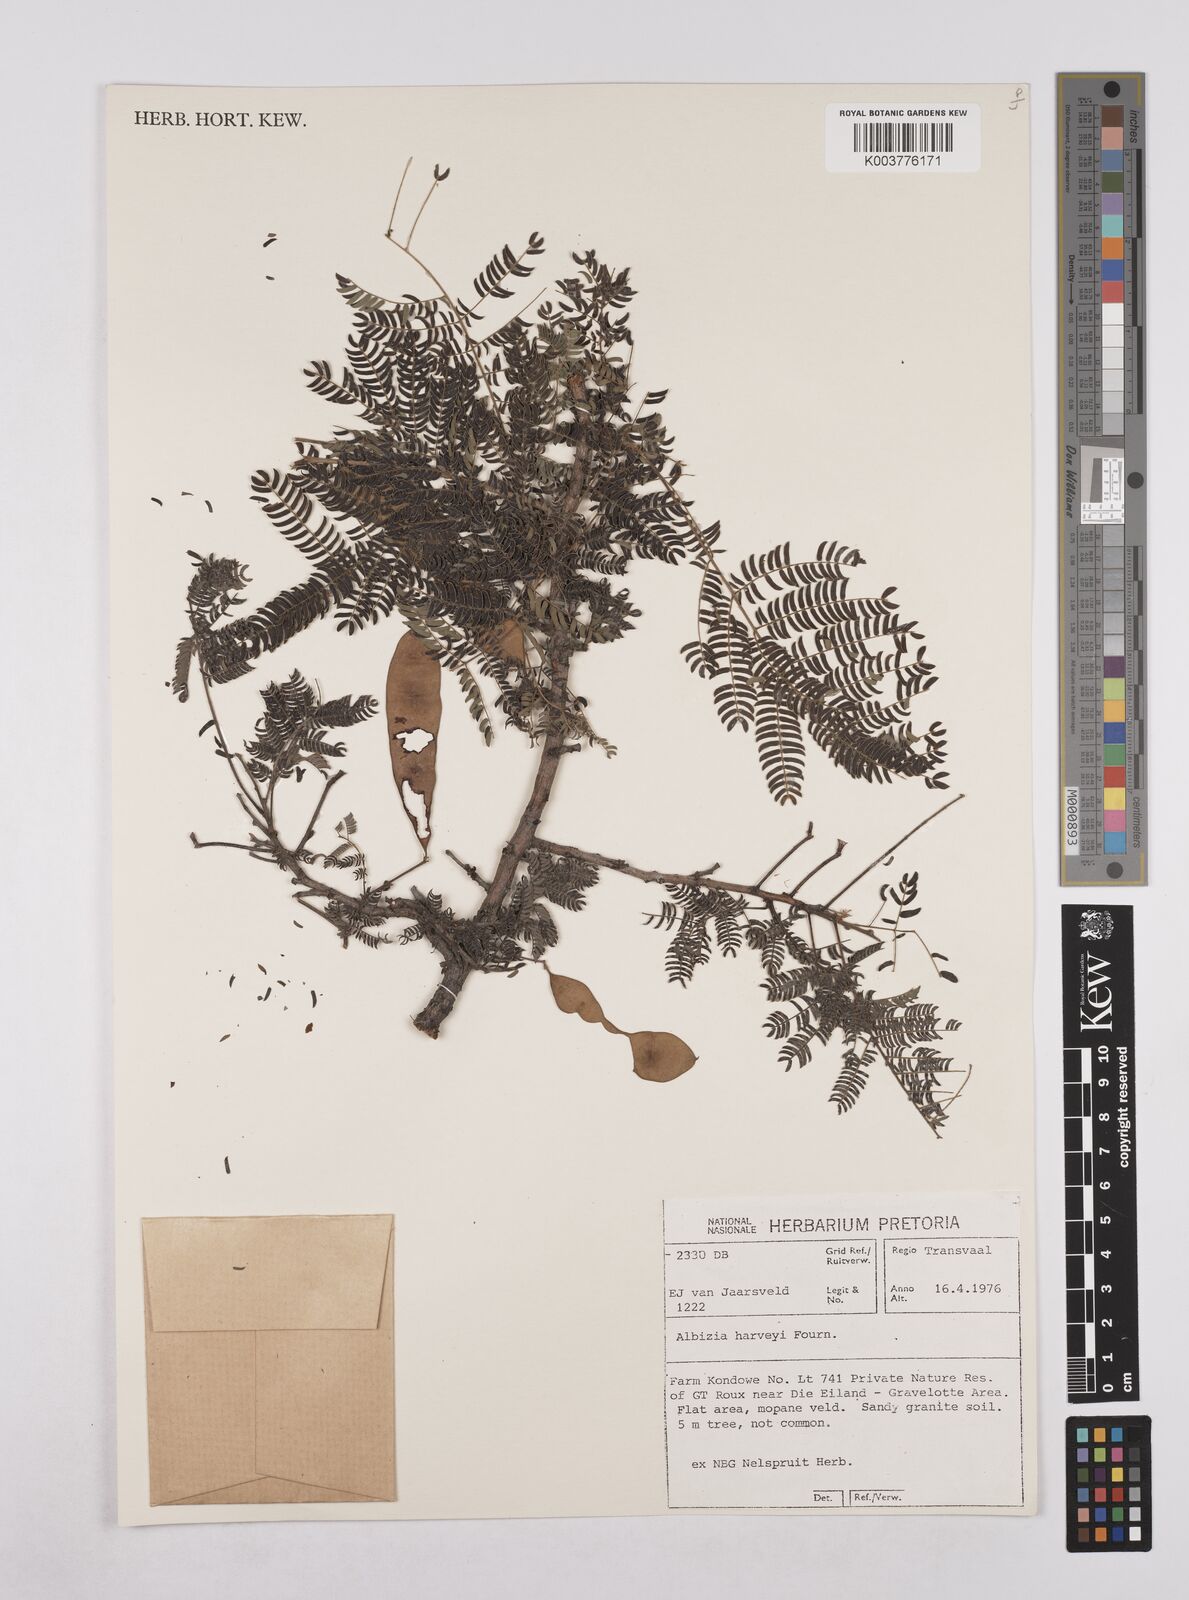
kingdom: Plantae
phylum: Tracheophyta
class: Magnoliopsida
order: Fabales
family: Fabaceae
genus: Albizia
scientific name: Albizia harveyi
